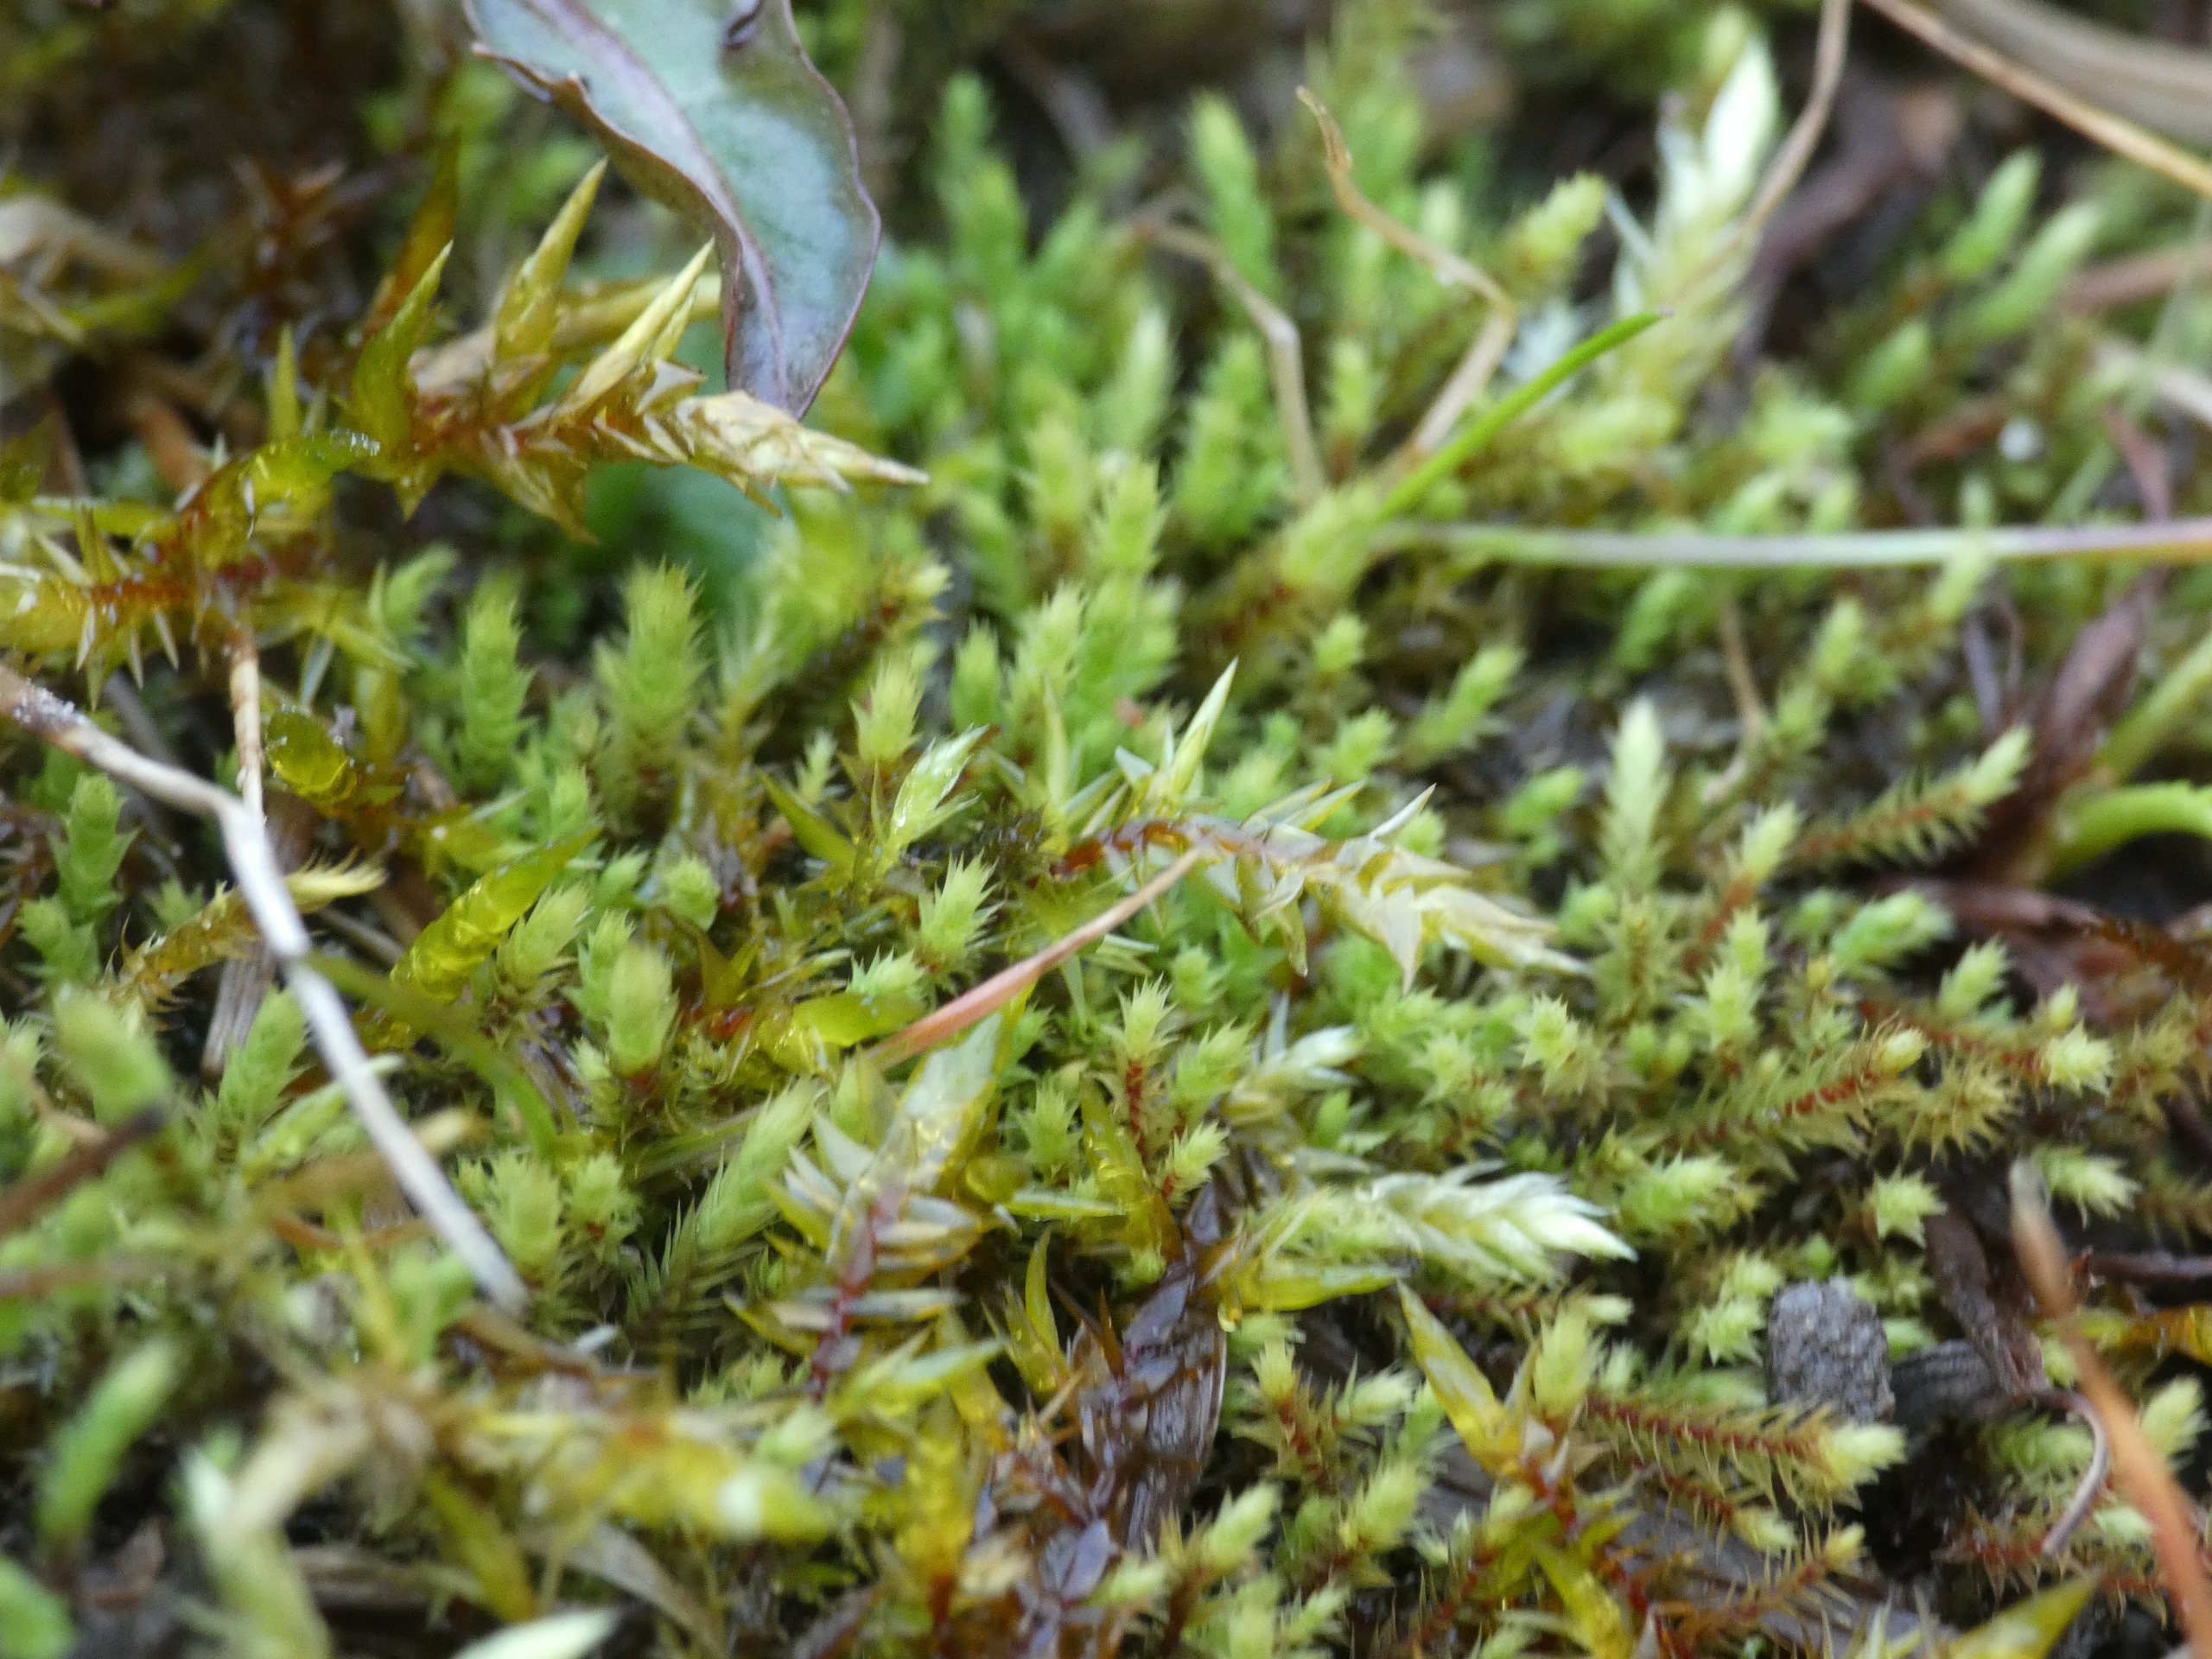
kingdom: Plantae
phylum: Bryophyta
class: Bryopsida
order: Bartramiales
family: Bartramiaceae
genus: Philonotis
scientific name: Philonotis fontana
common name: Kilde-vandtuemos
